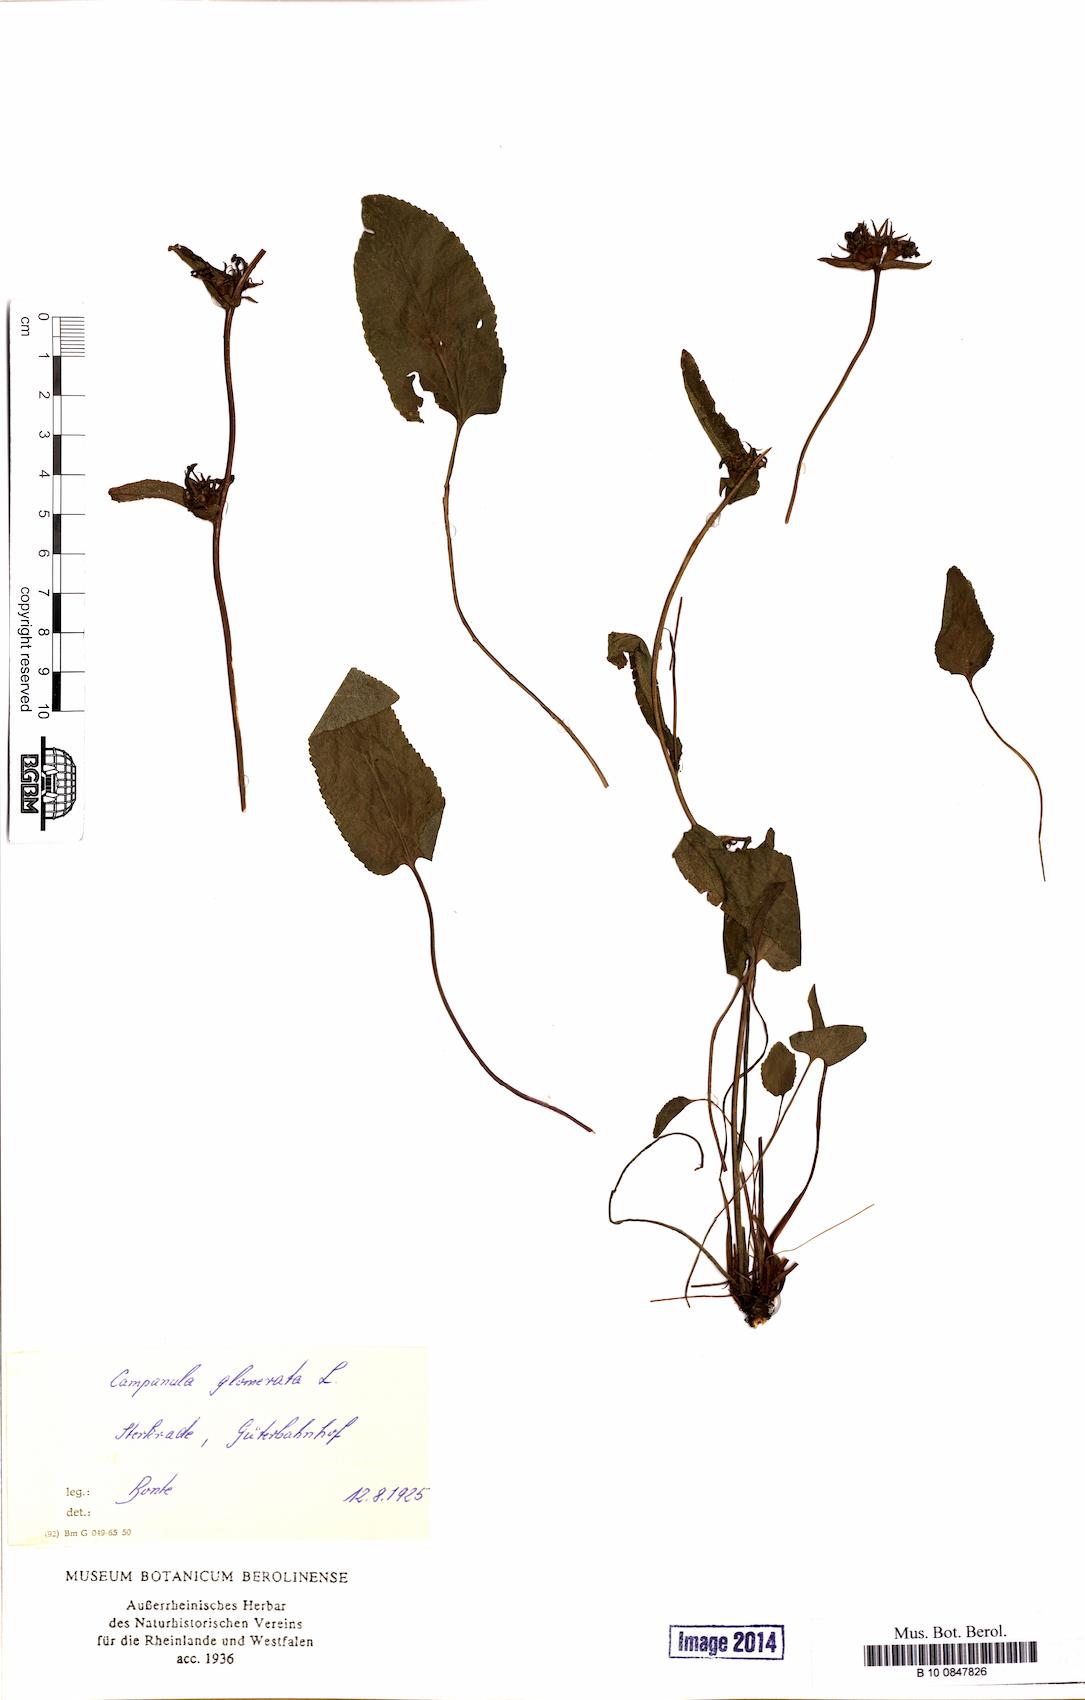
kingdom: Plantae
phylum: Tracheophyta
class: Magnoliopsida
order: Asterales
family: Campanulaceae
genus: Campanula
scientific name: Campanula glomerata
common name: Clustered bellflower
